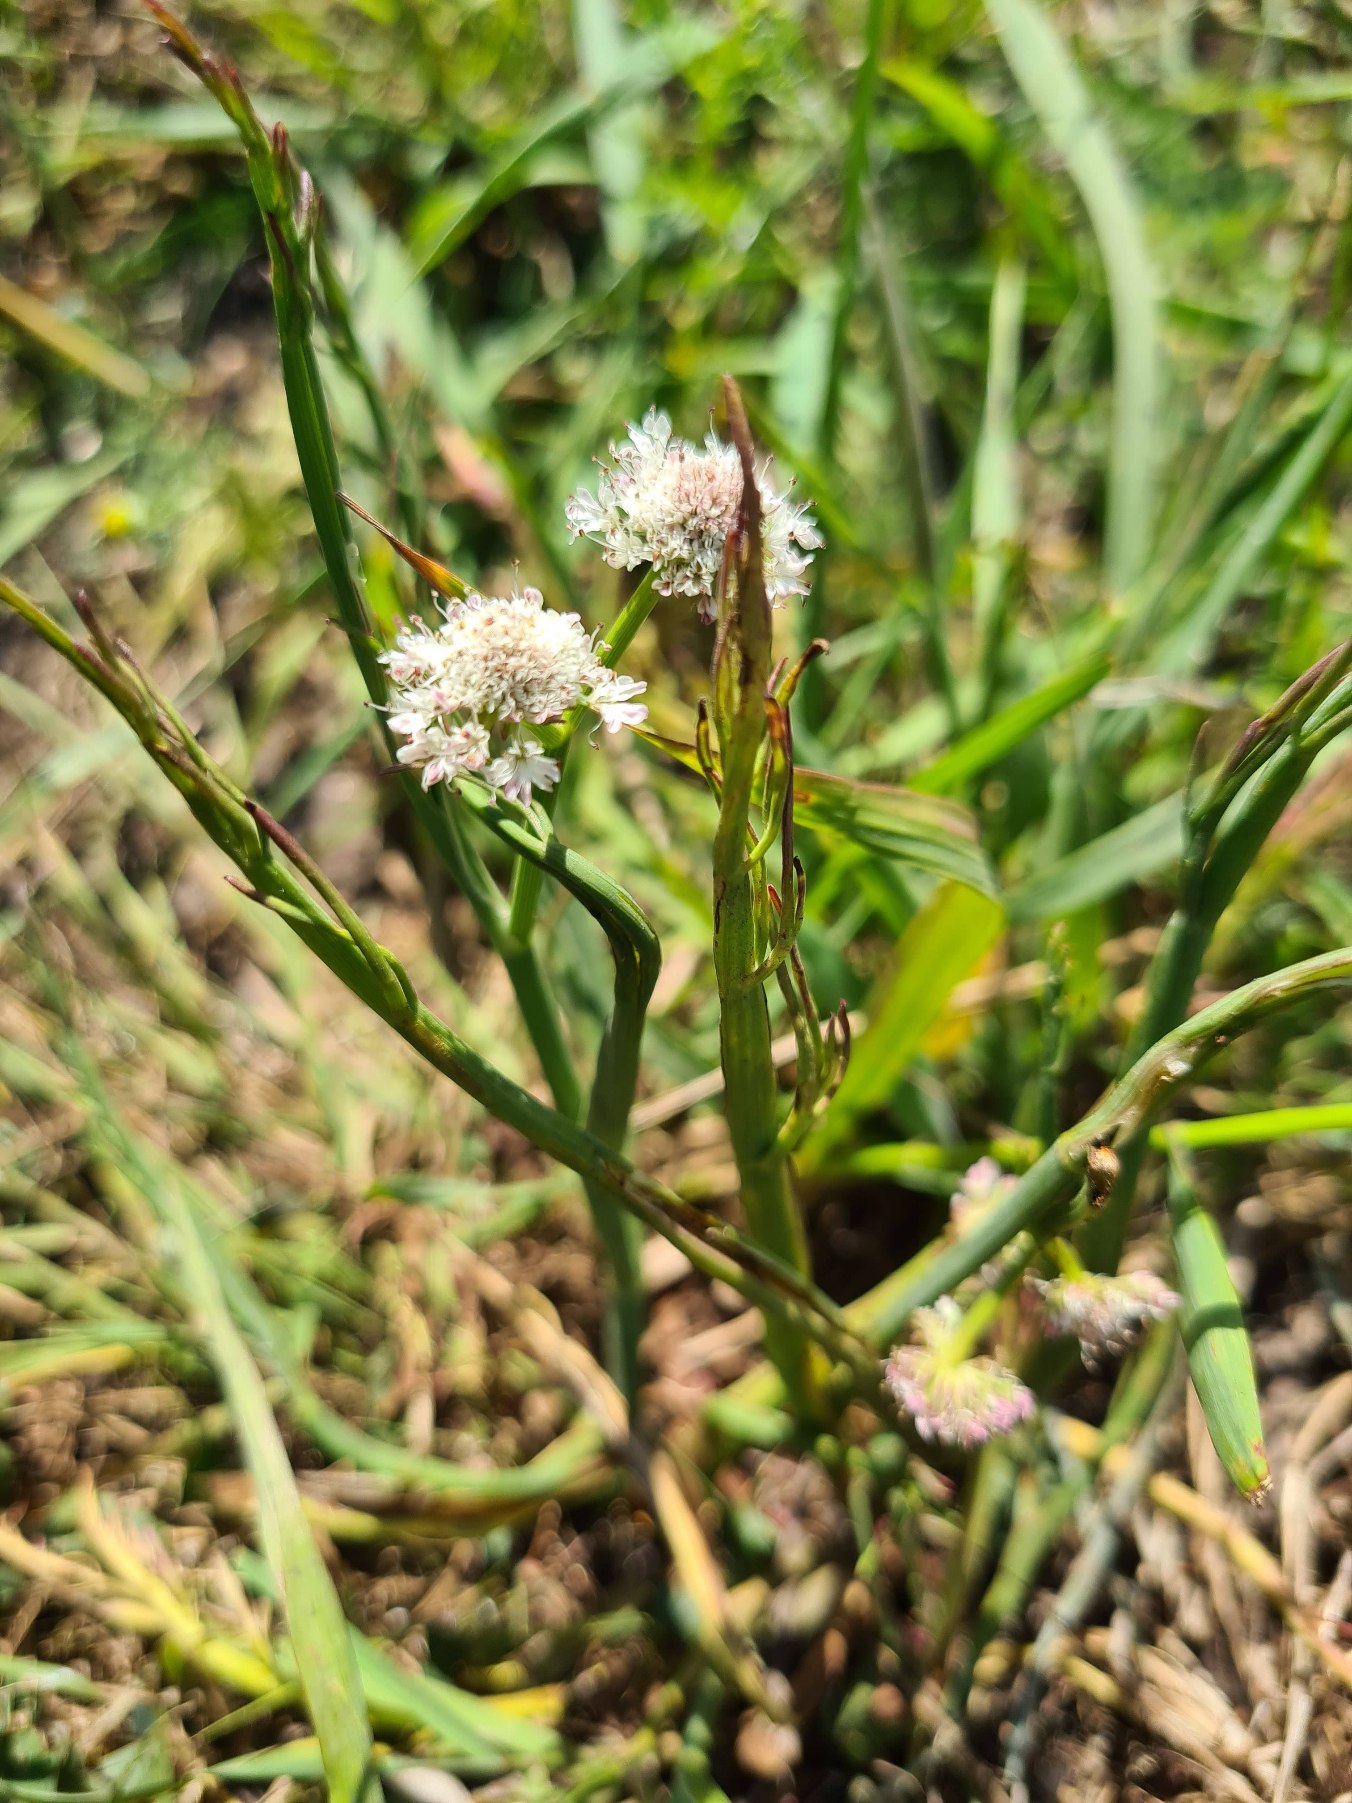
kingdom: Plantae
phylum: Tracheophyta
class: Magnoliopsida
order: Apiales
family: Apiaceae
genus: Oenanthe
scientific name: Oenanthe fistulosa
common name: Vand-klaseskærm
